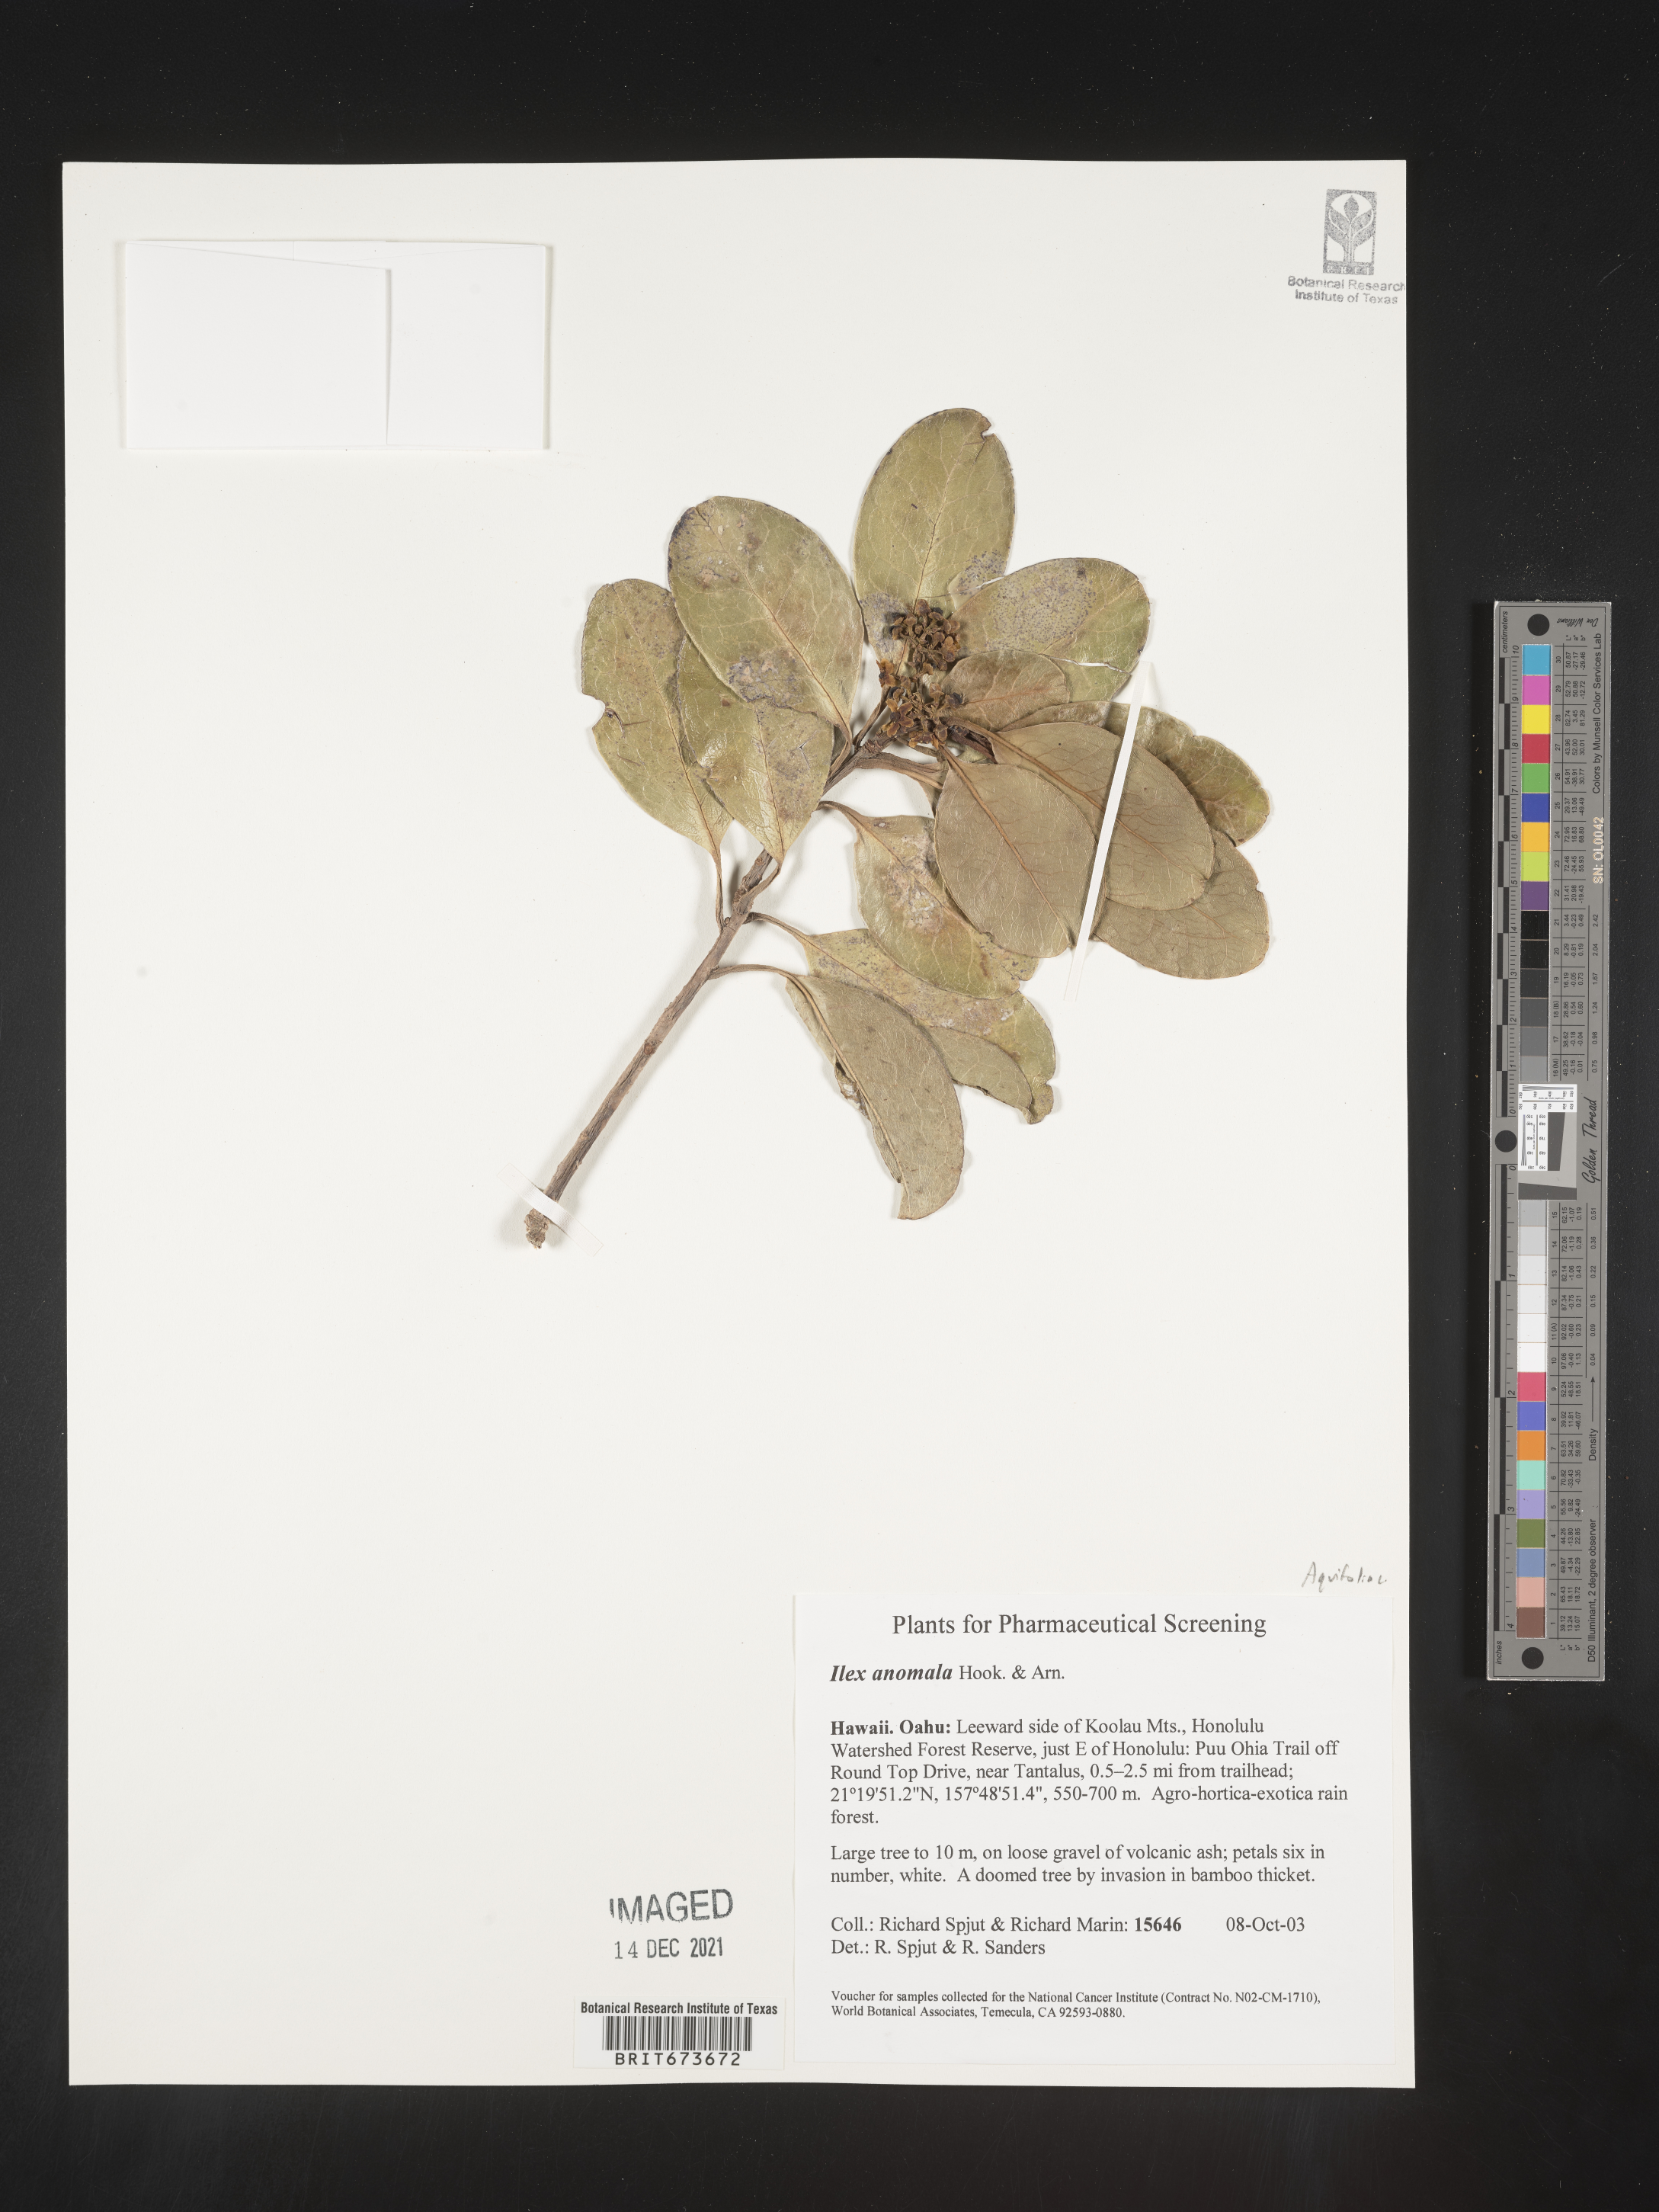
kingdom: Plantae
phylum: Tracheophyta
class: Magnoliopsida
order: Aquifoliales
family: Aquifoliaceae
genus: Ilex
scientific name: Ilex
